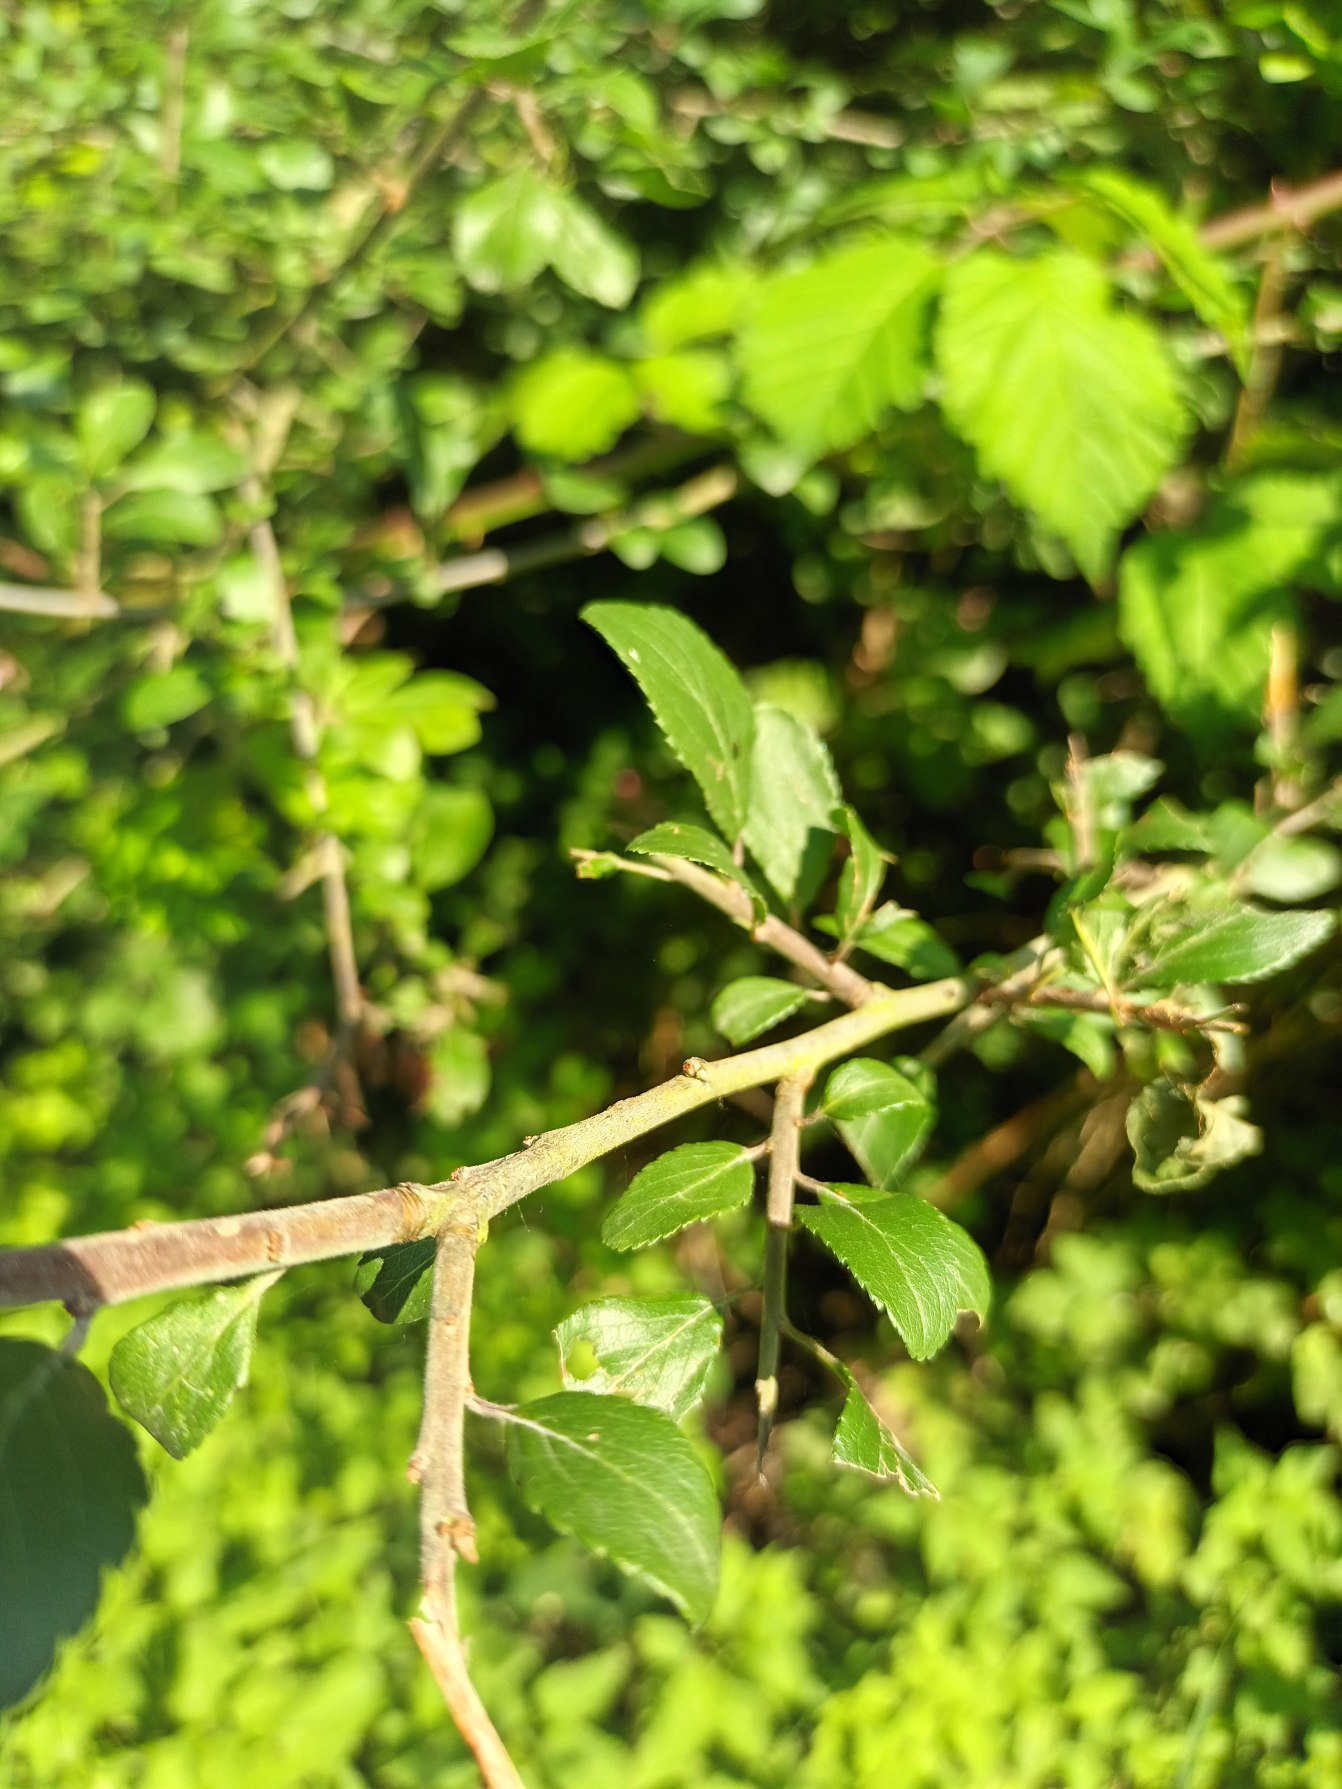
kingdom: Plantae
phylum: Tracheophyta
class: Magnoliopsida
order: Rosales
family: Rosaceae
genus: Prunus
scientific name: Prunus spinosa
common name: Slåen
